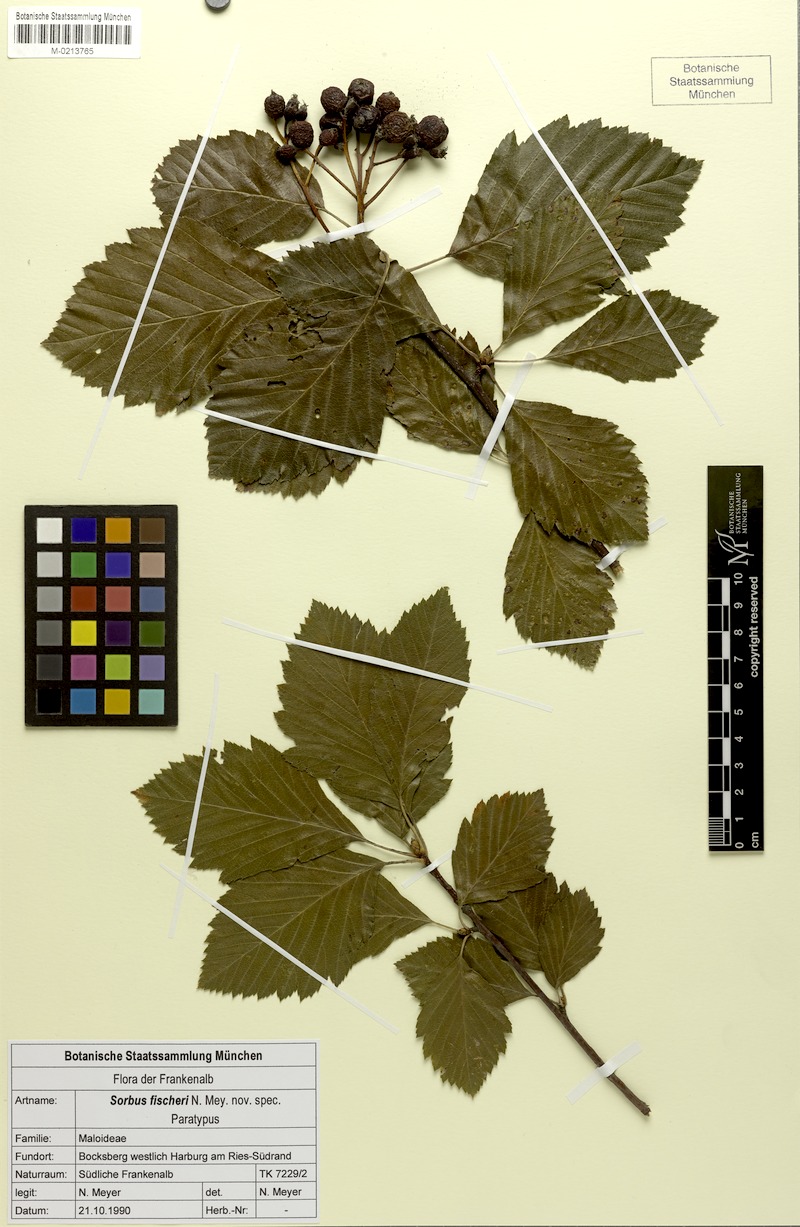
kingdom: Plantae
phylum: Tracheophyta
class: Magnoliopsida
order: Rosales
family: Rosaceae
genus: Karpatiosorbus
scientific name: Karpatiosorbus fischeri
